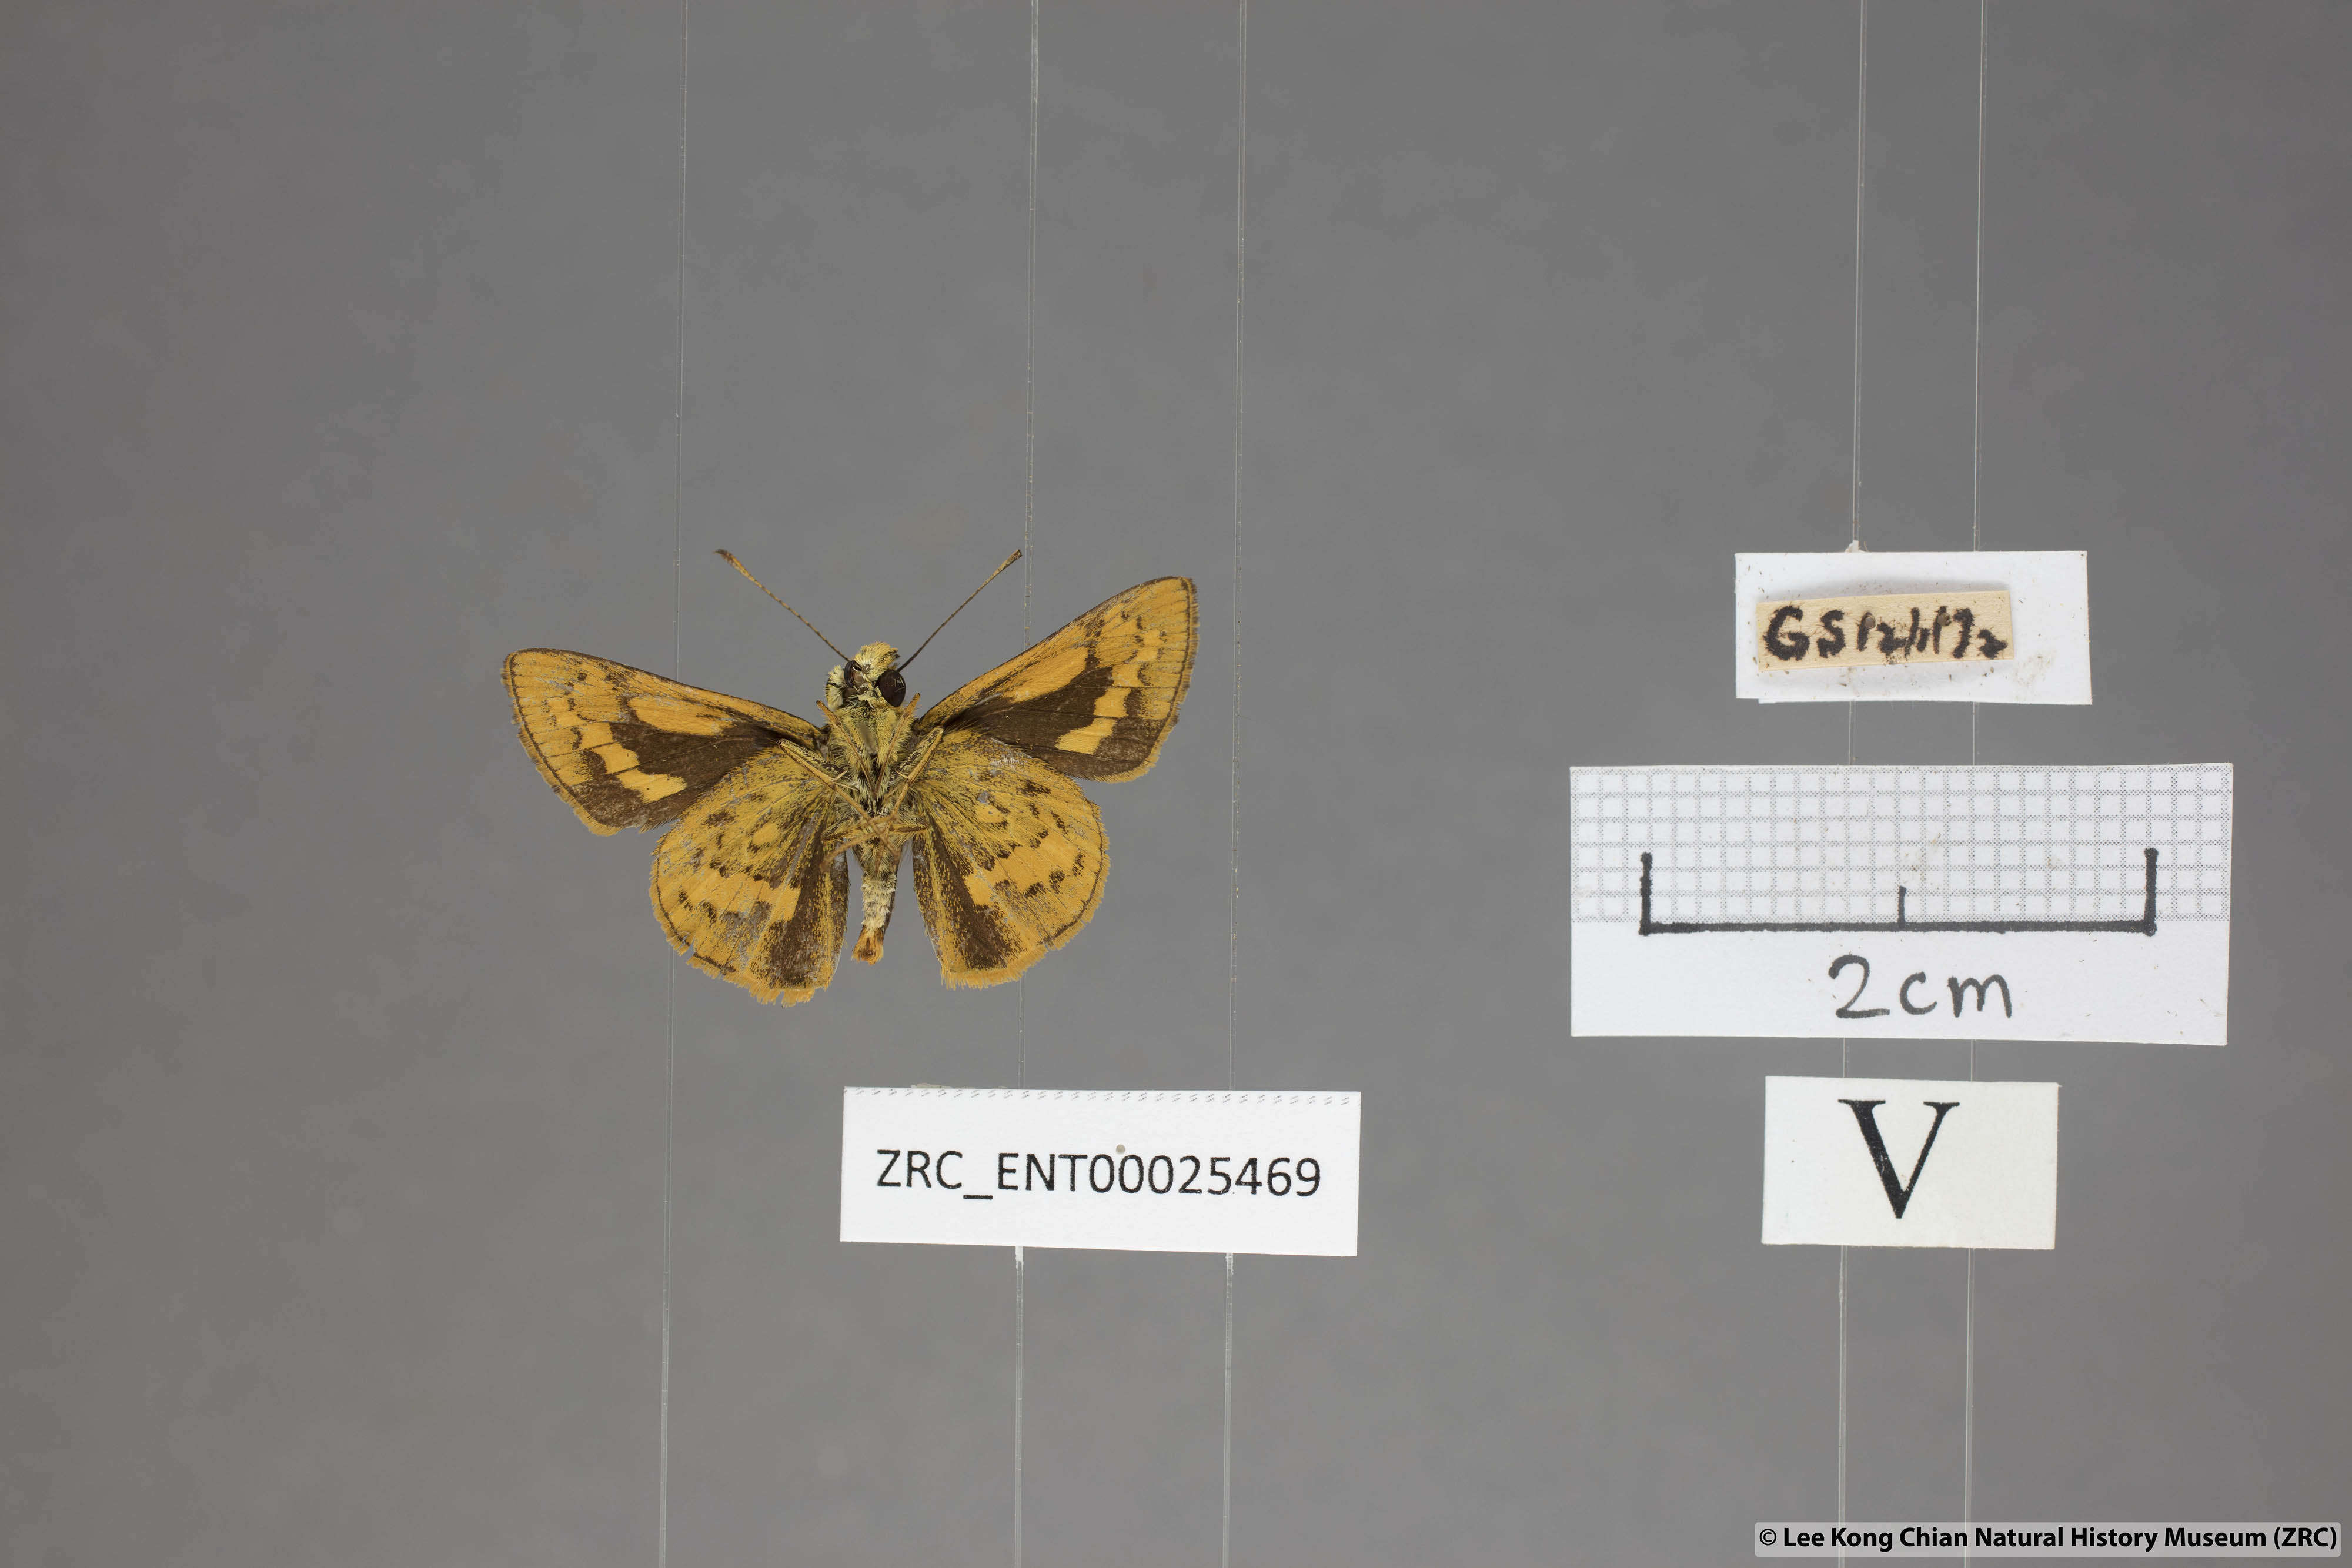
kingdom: Animalia
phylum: Arthropoda
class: Insecta
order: Lepidoptera
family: Hesperiidae
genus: Potanthus
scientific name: Potanthus rectifasciata
